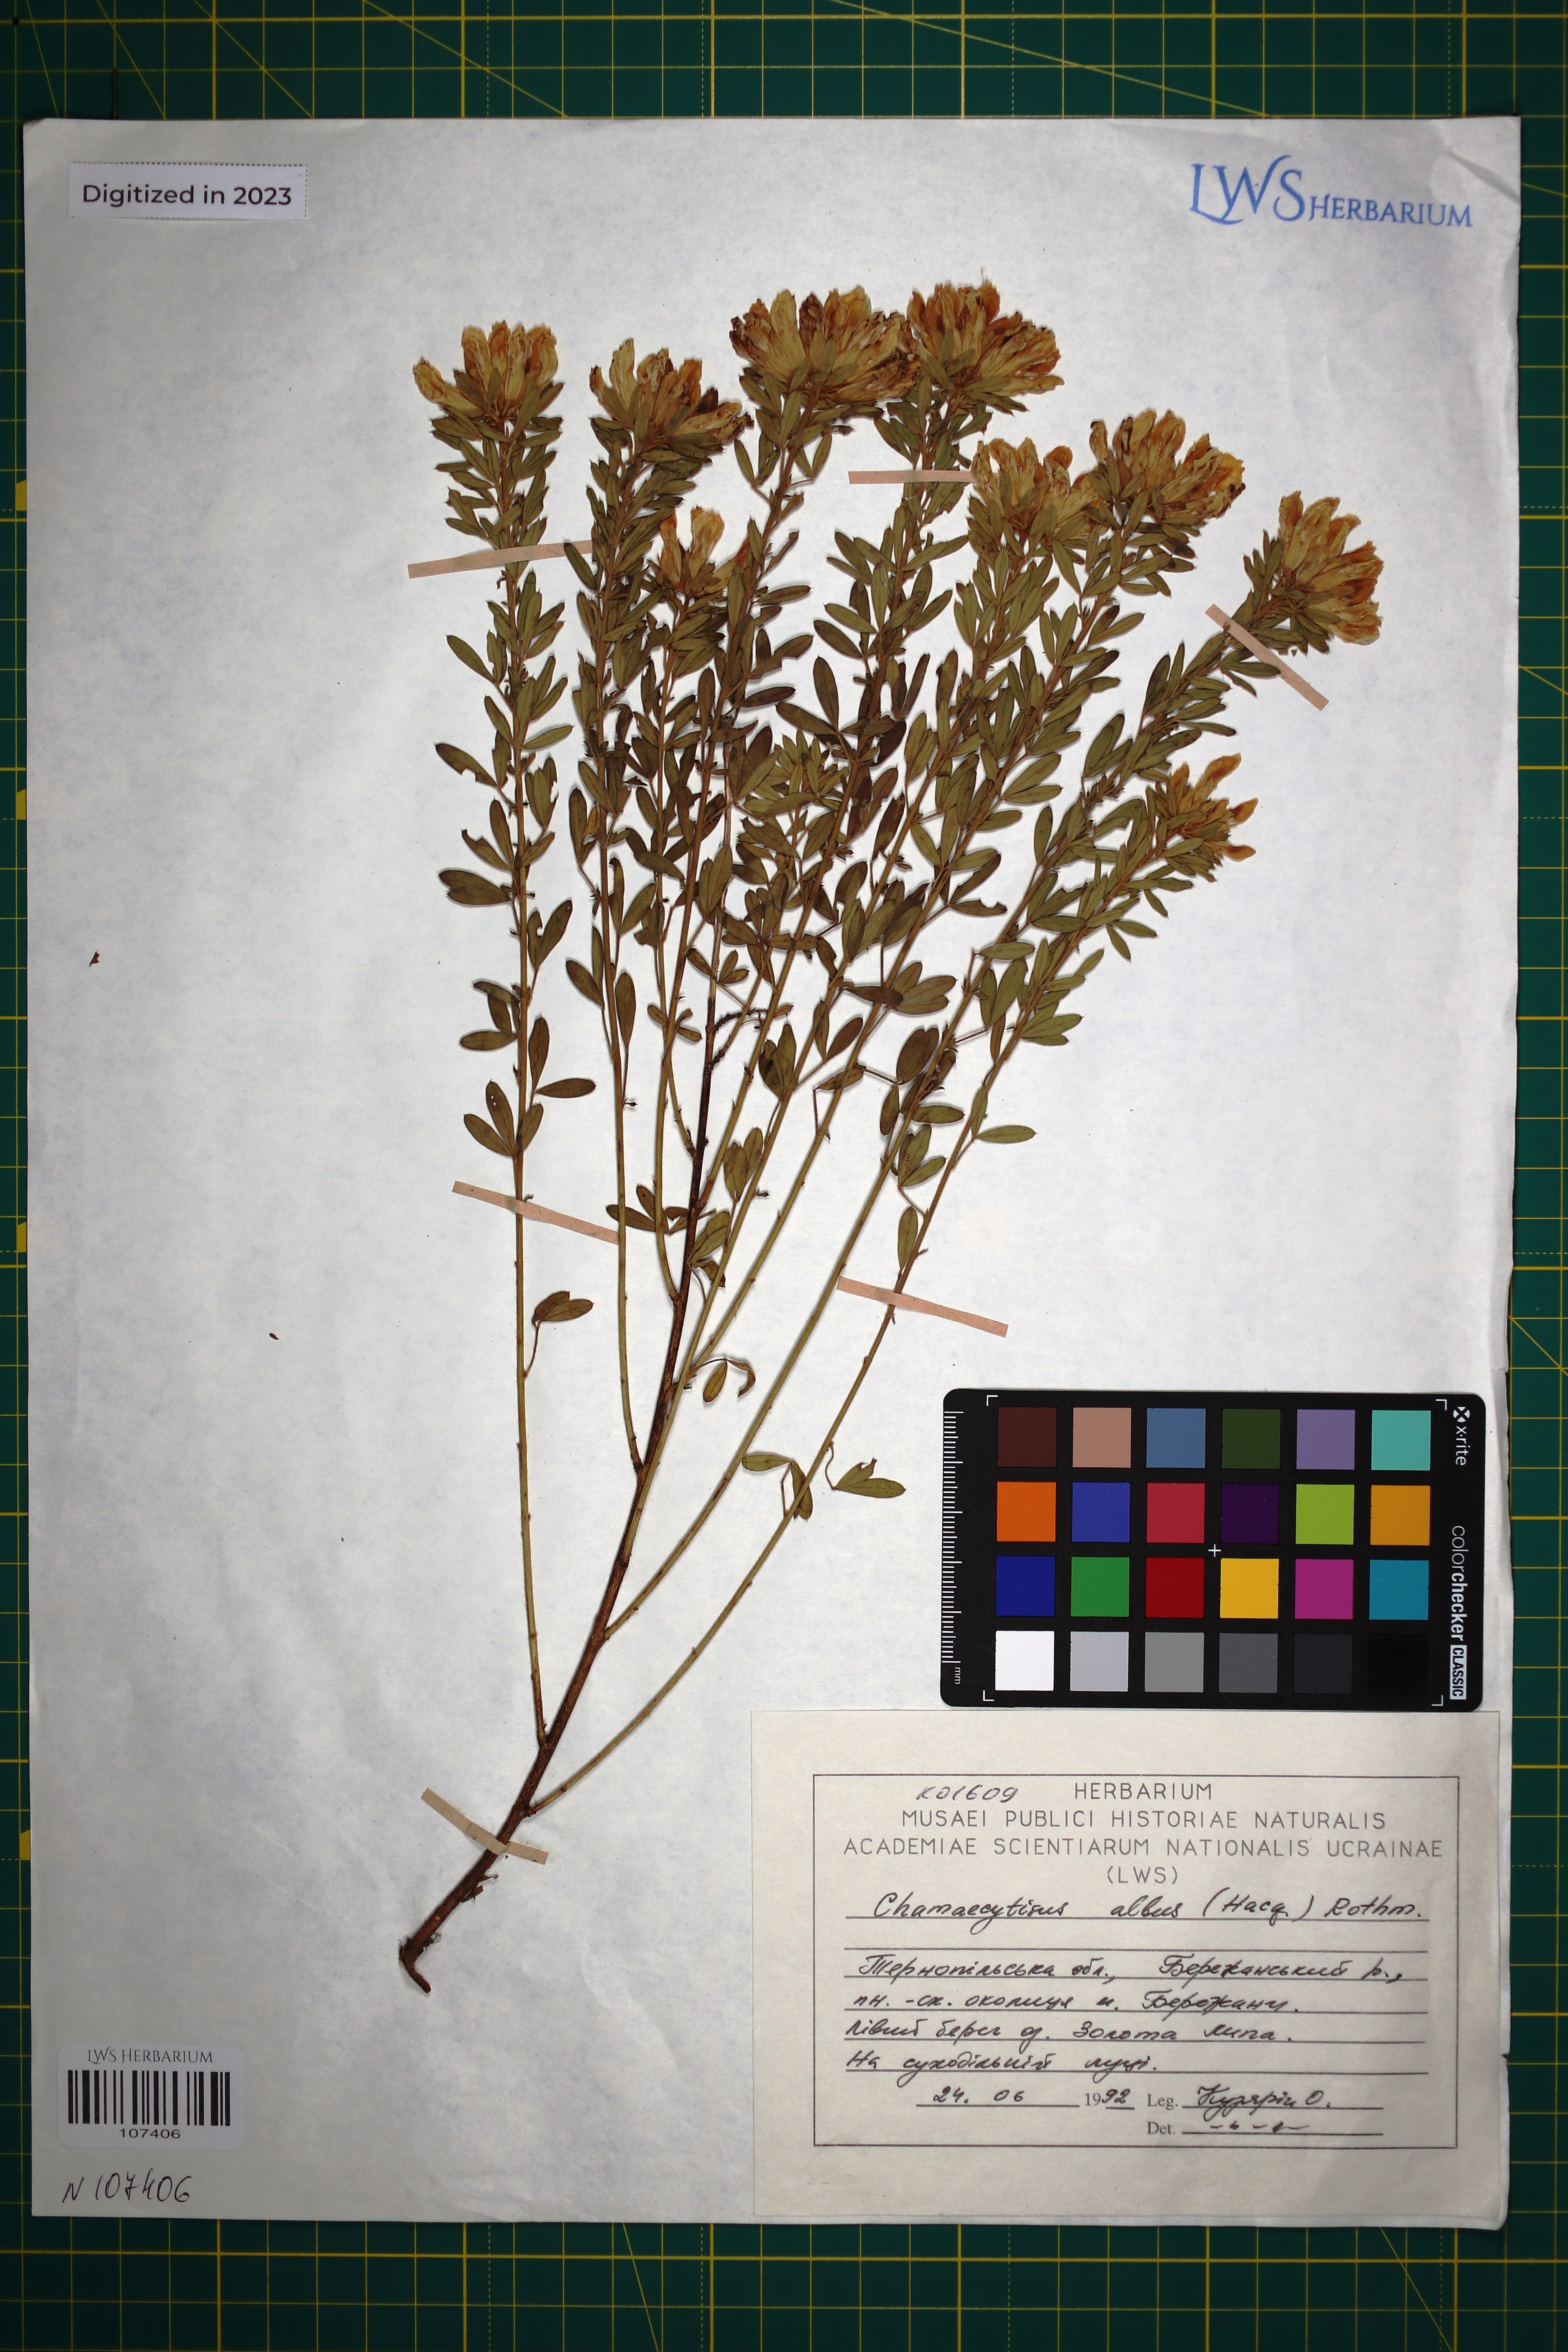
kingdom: Plantae
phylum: Tracheophyta
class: Magnoliopsida
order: Fabales
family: Fabaceae
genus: Chamaecytisus
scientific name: Chamaecytisus albus
